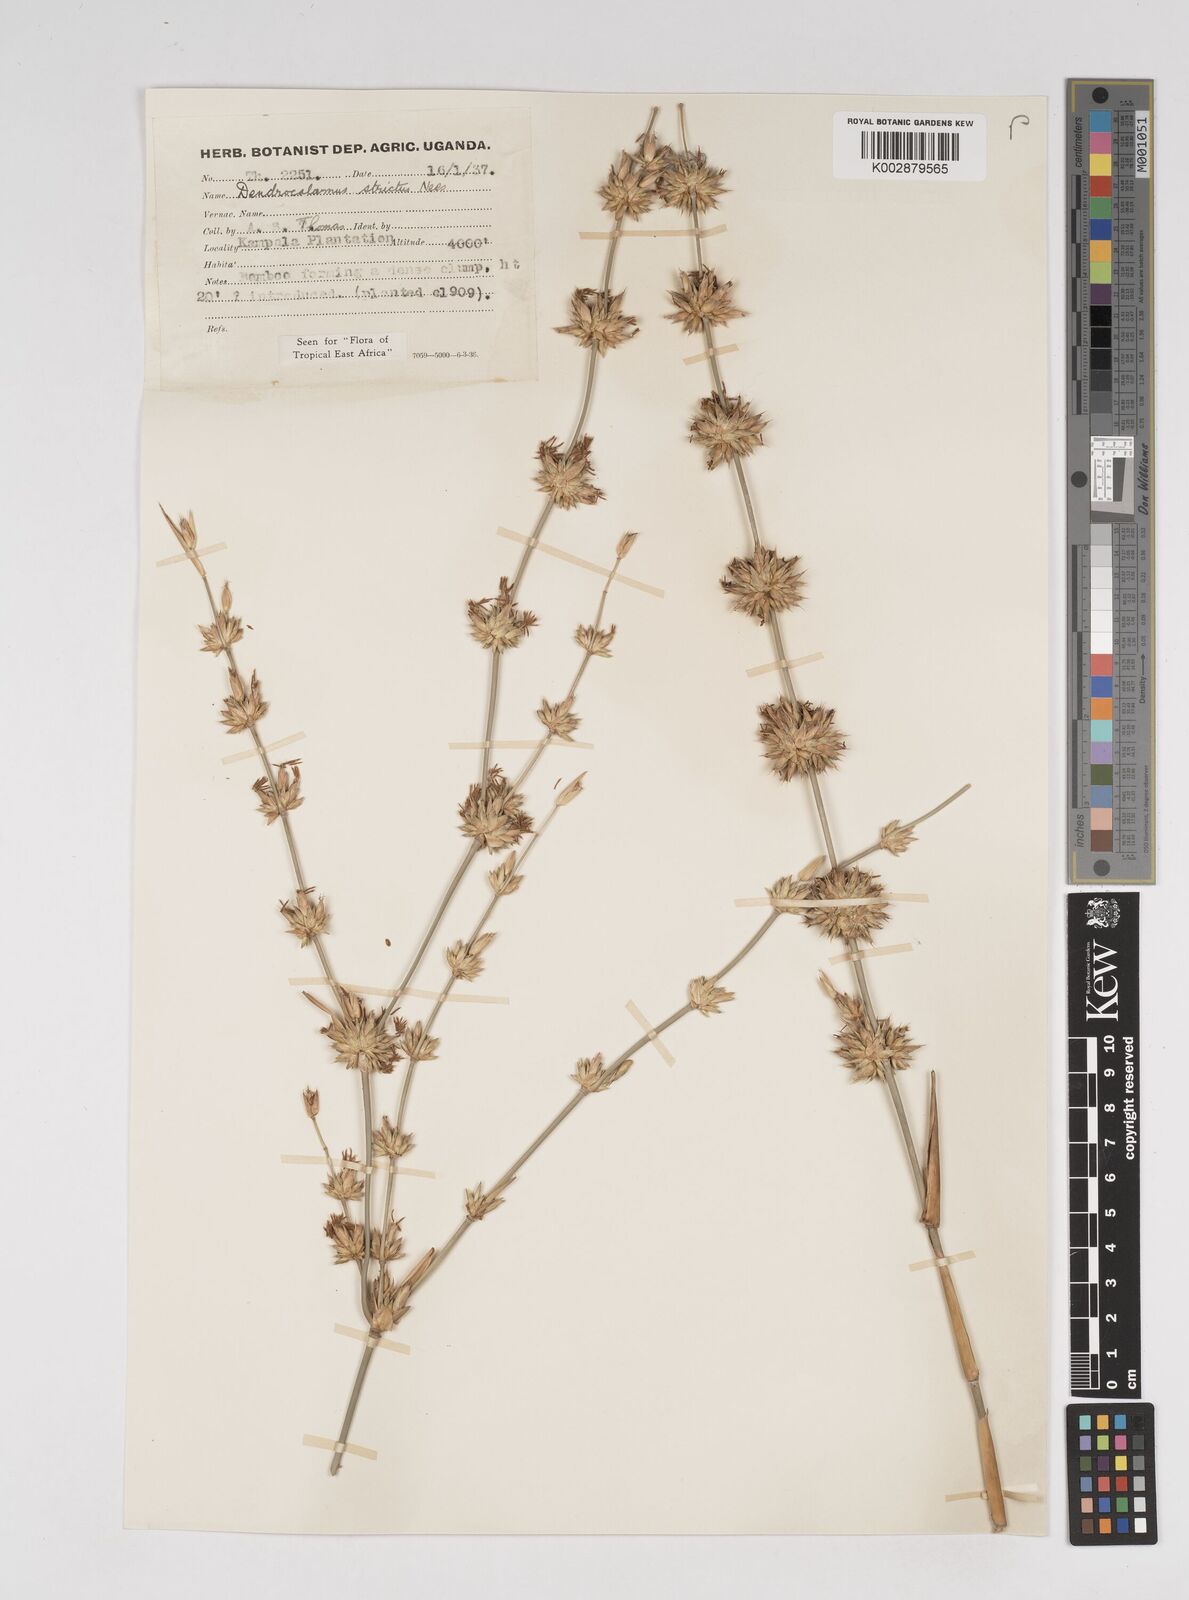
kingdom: Plantae
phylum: Tracheophyta
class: Liliopsida
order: Poales
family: Poaceae
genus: Dendrocalamus
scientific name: Dendrocalamus strictus
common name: Male bamboo
